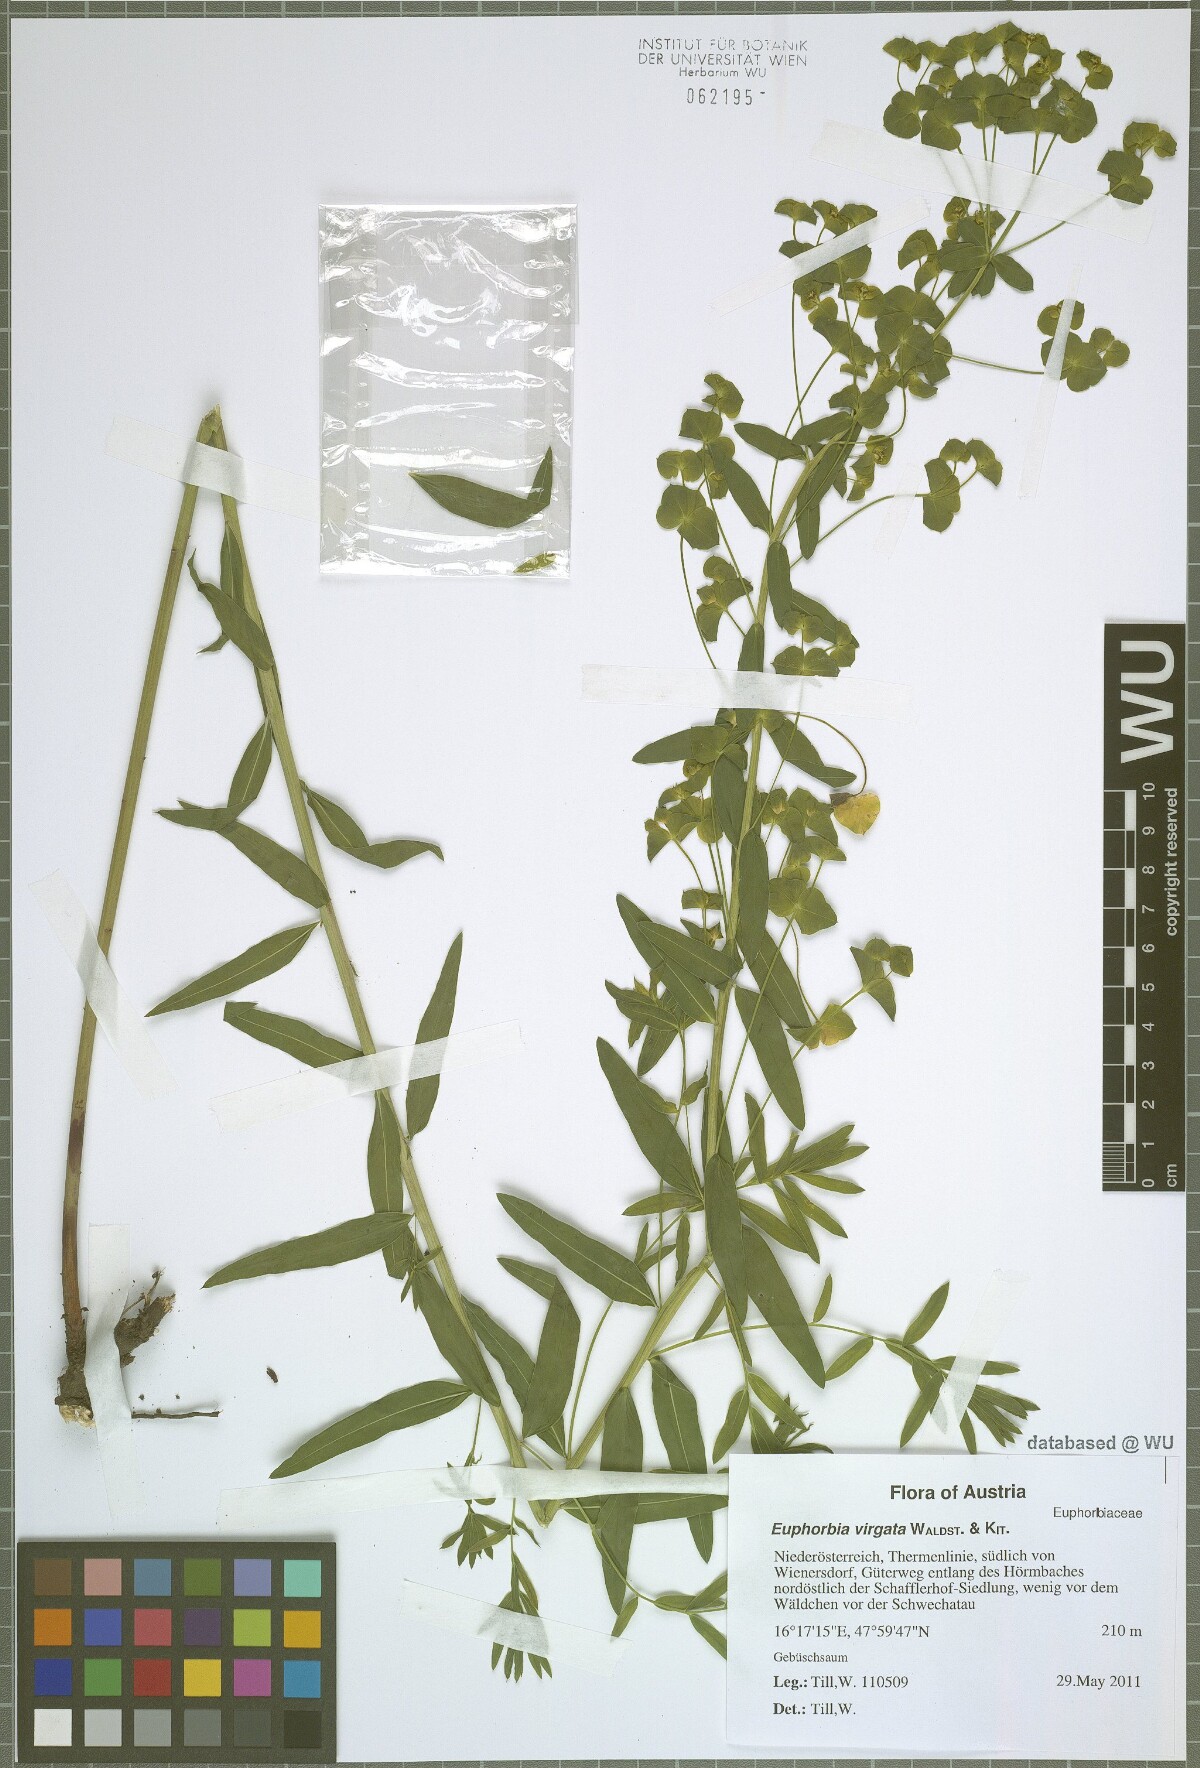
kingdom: Plantae
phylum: Tracheophyta
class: Magnoliopsida
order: Malpighiales
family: Euphorbiaceae
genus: Euphorbia
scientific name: Euphorbia virgata
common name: Leafy spurge
